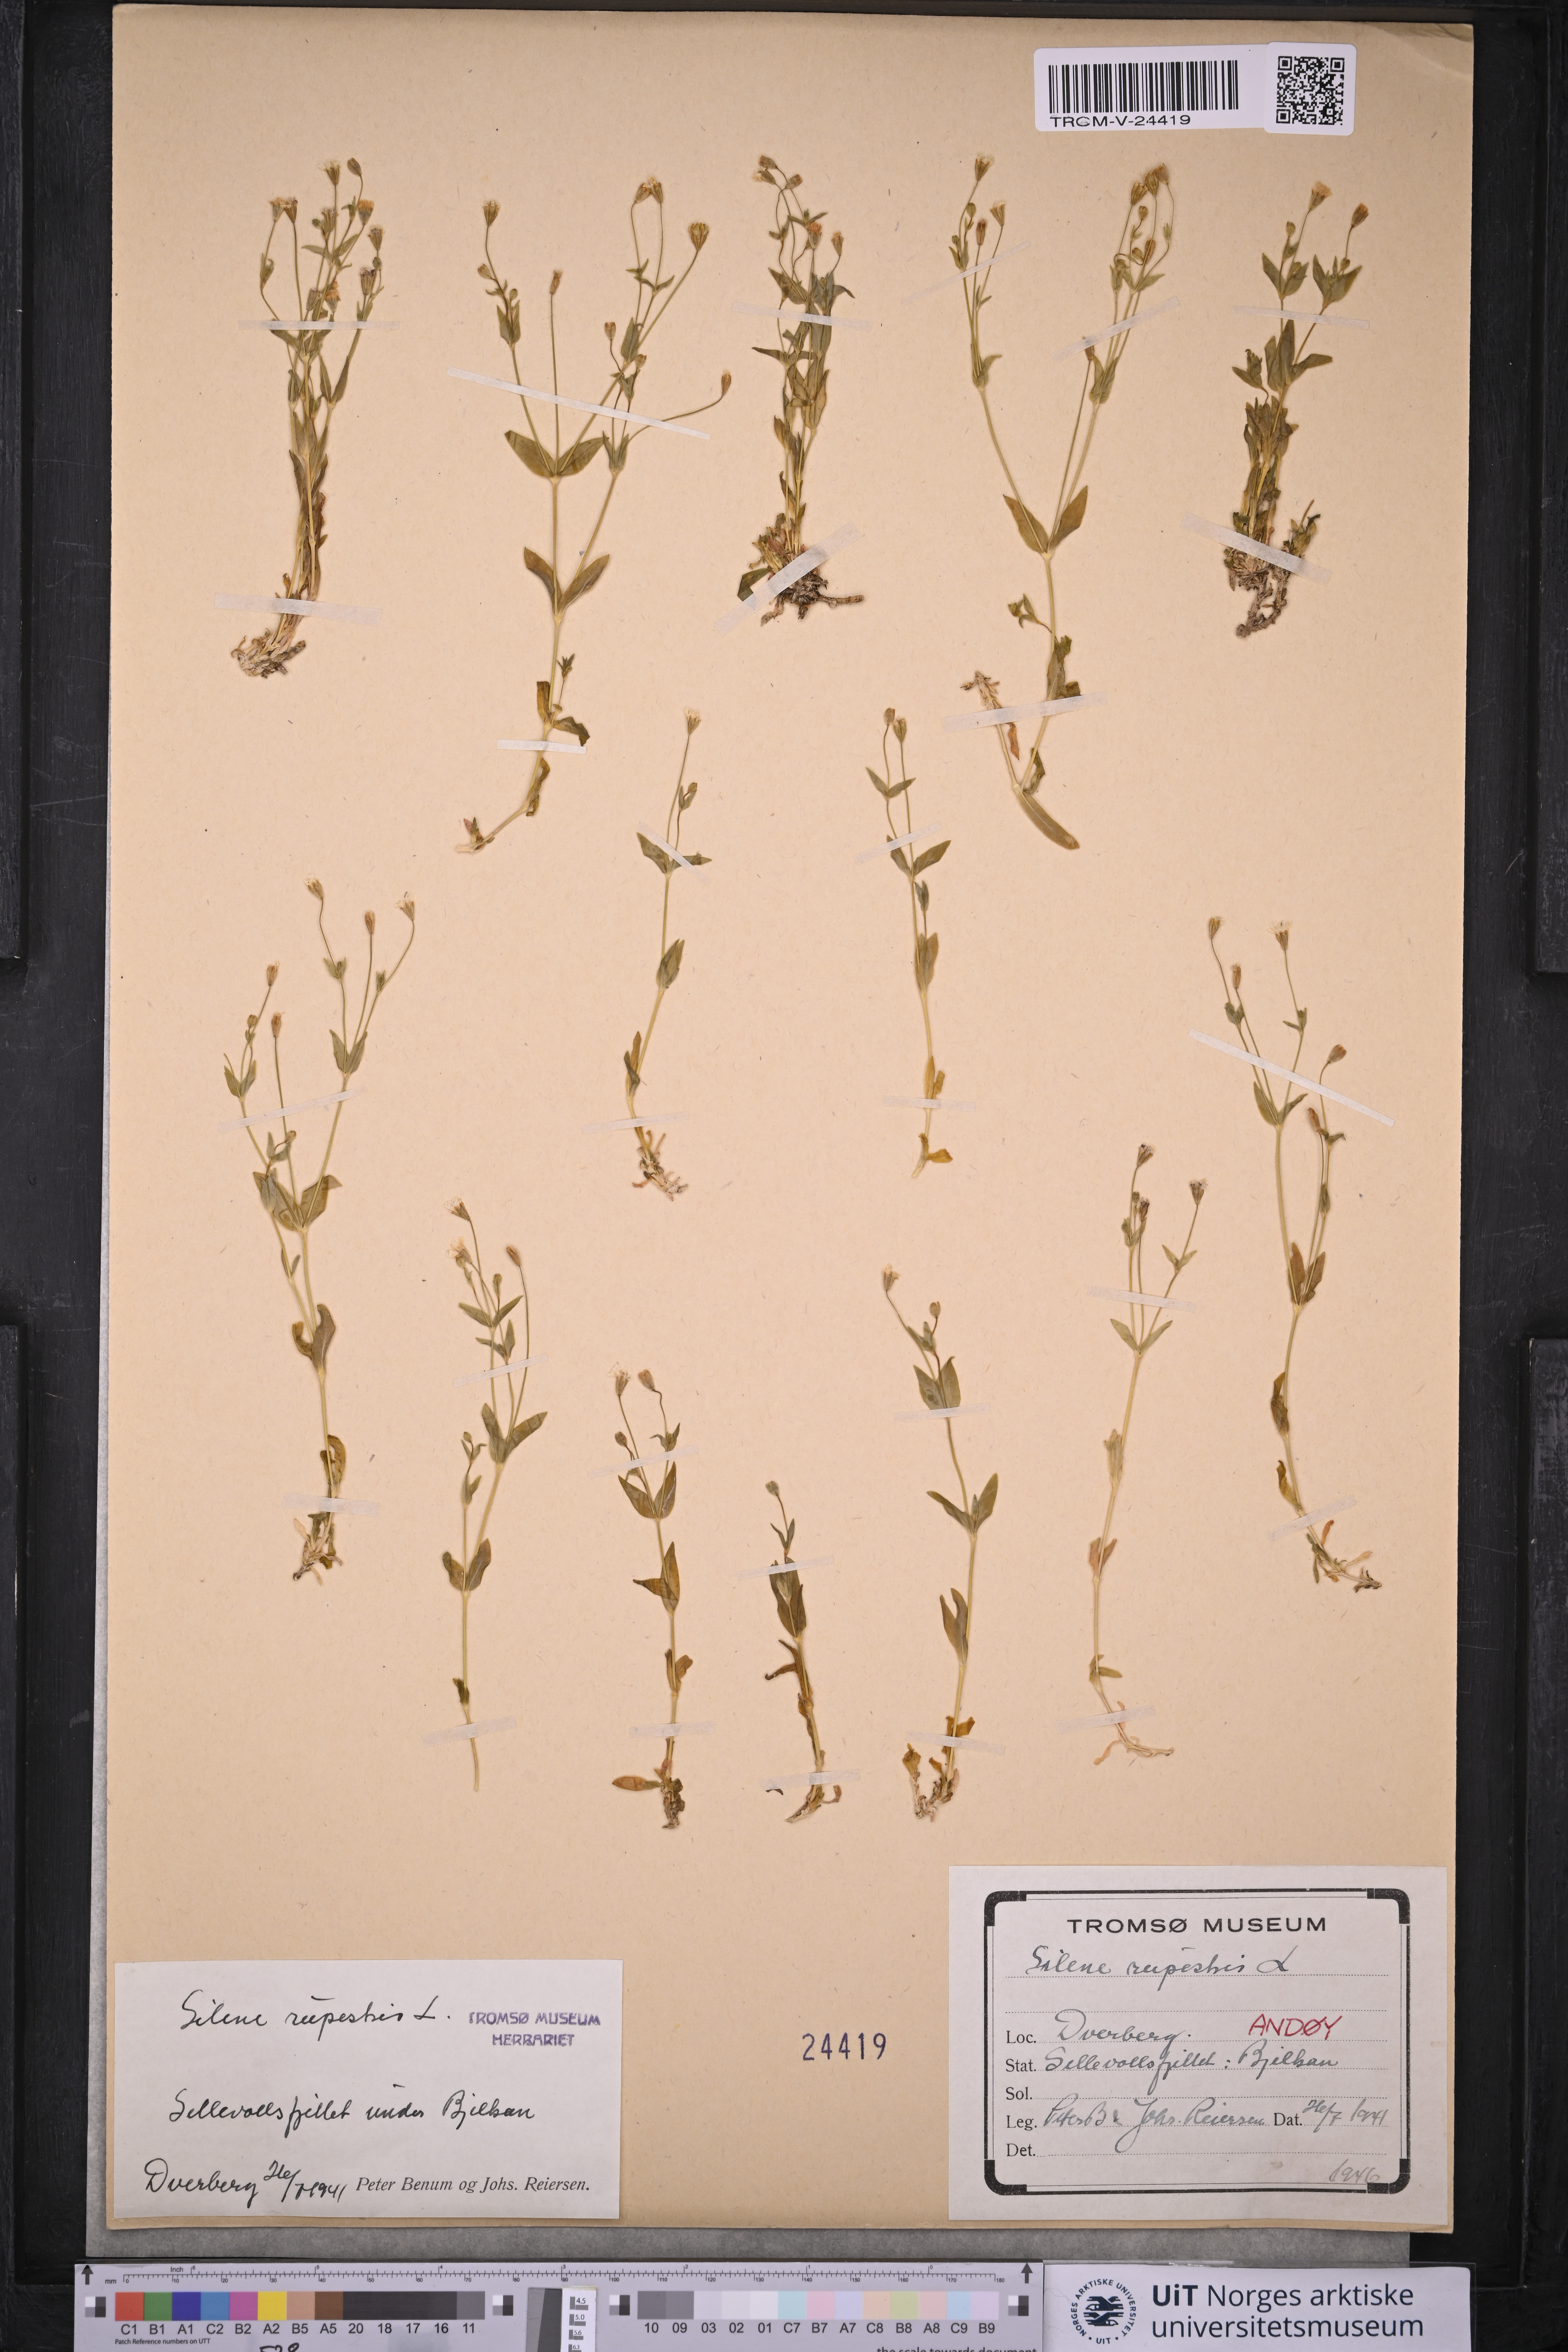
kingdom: Plantae
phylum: Tracheophyta
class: Magnoliopsida
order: Caryophyllales
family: Caryophyllaceae
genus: Atocion
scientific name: Atocion rupestre
